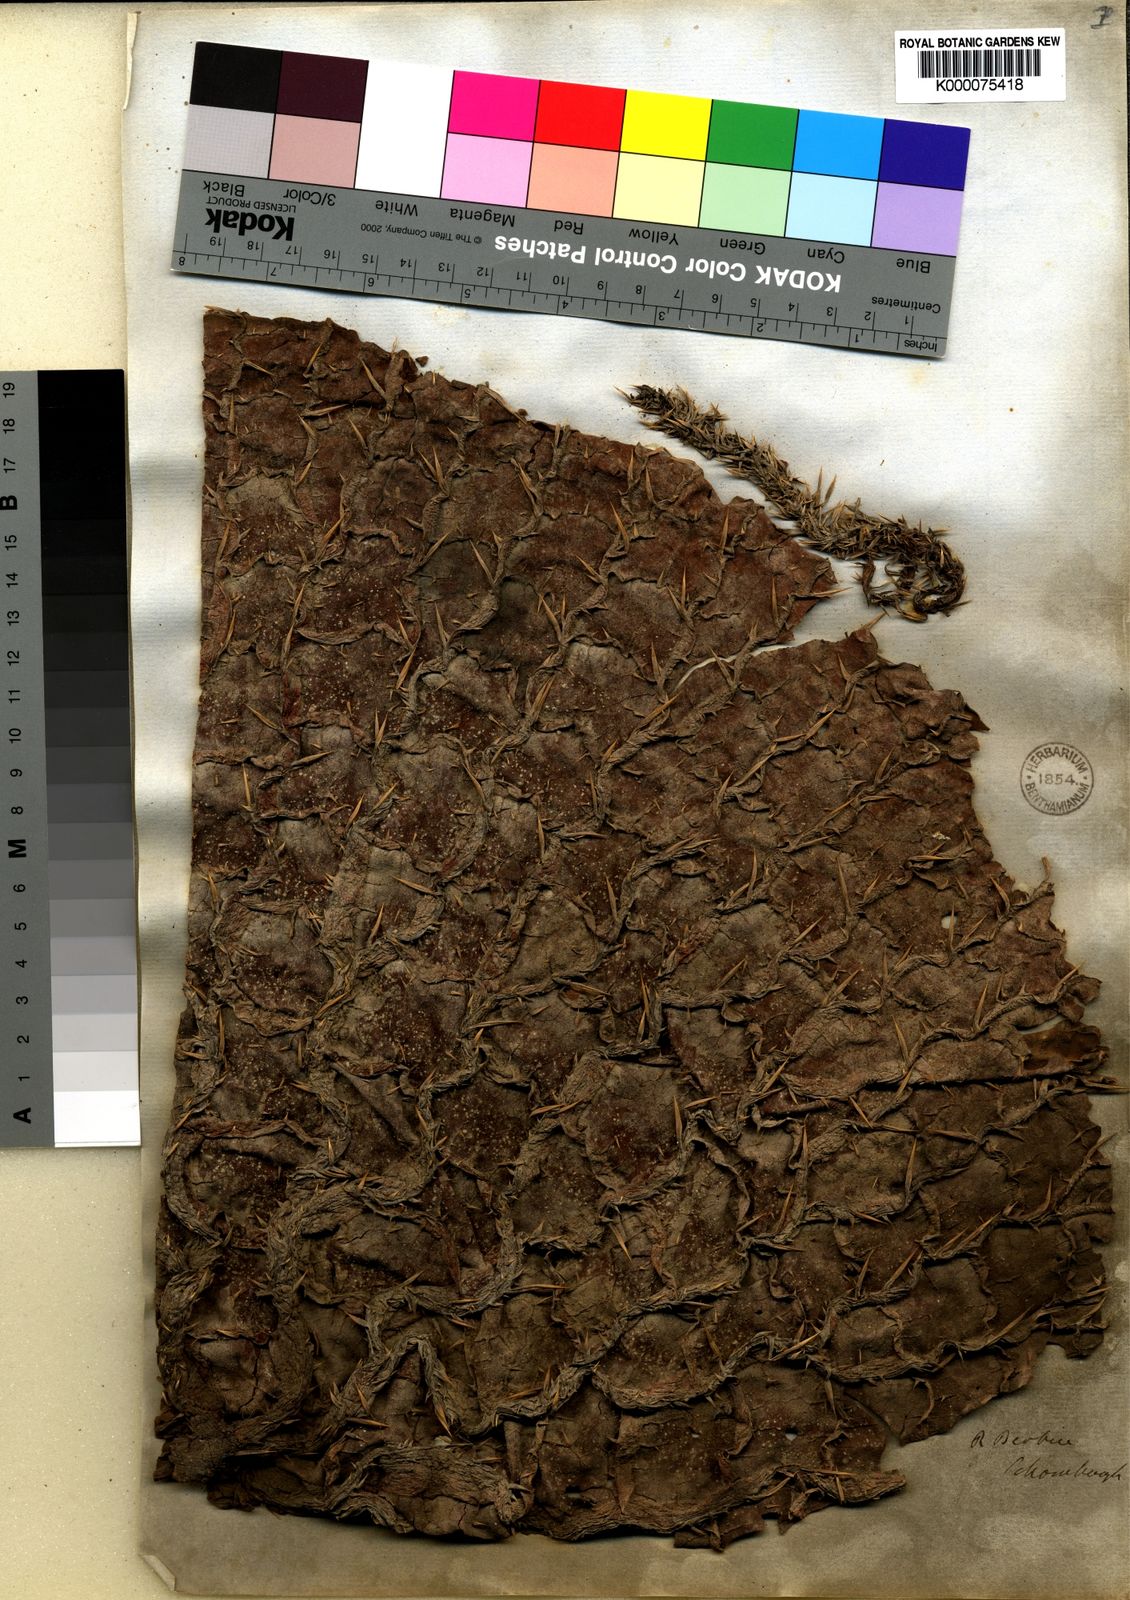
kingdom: Plantae
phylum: Tracheophyta
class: Magnoliopsida
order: Nymphaeales
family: Nymphaeaceae
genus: Victoria
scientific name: Victoria
